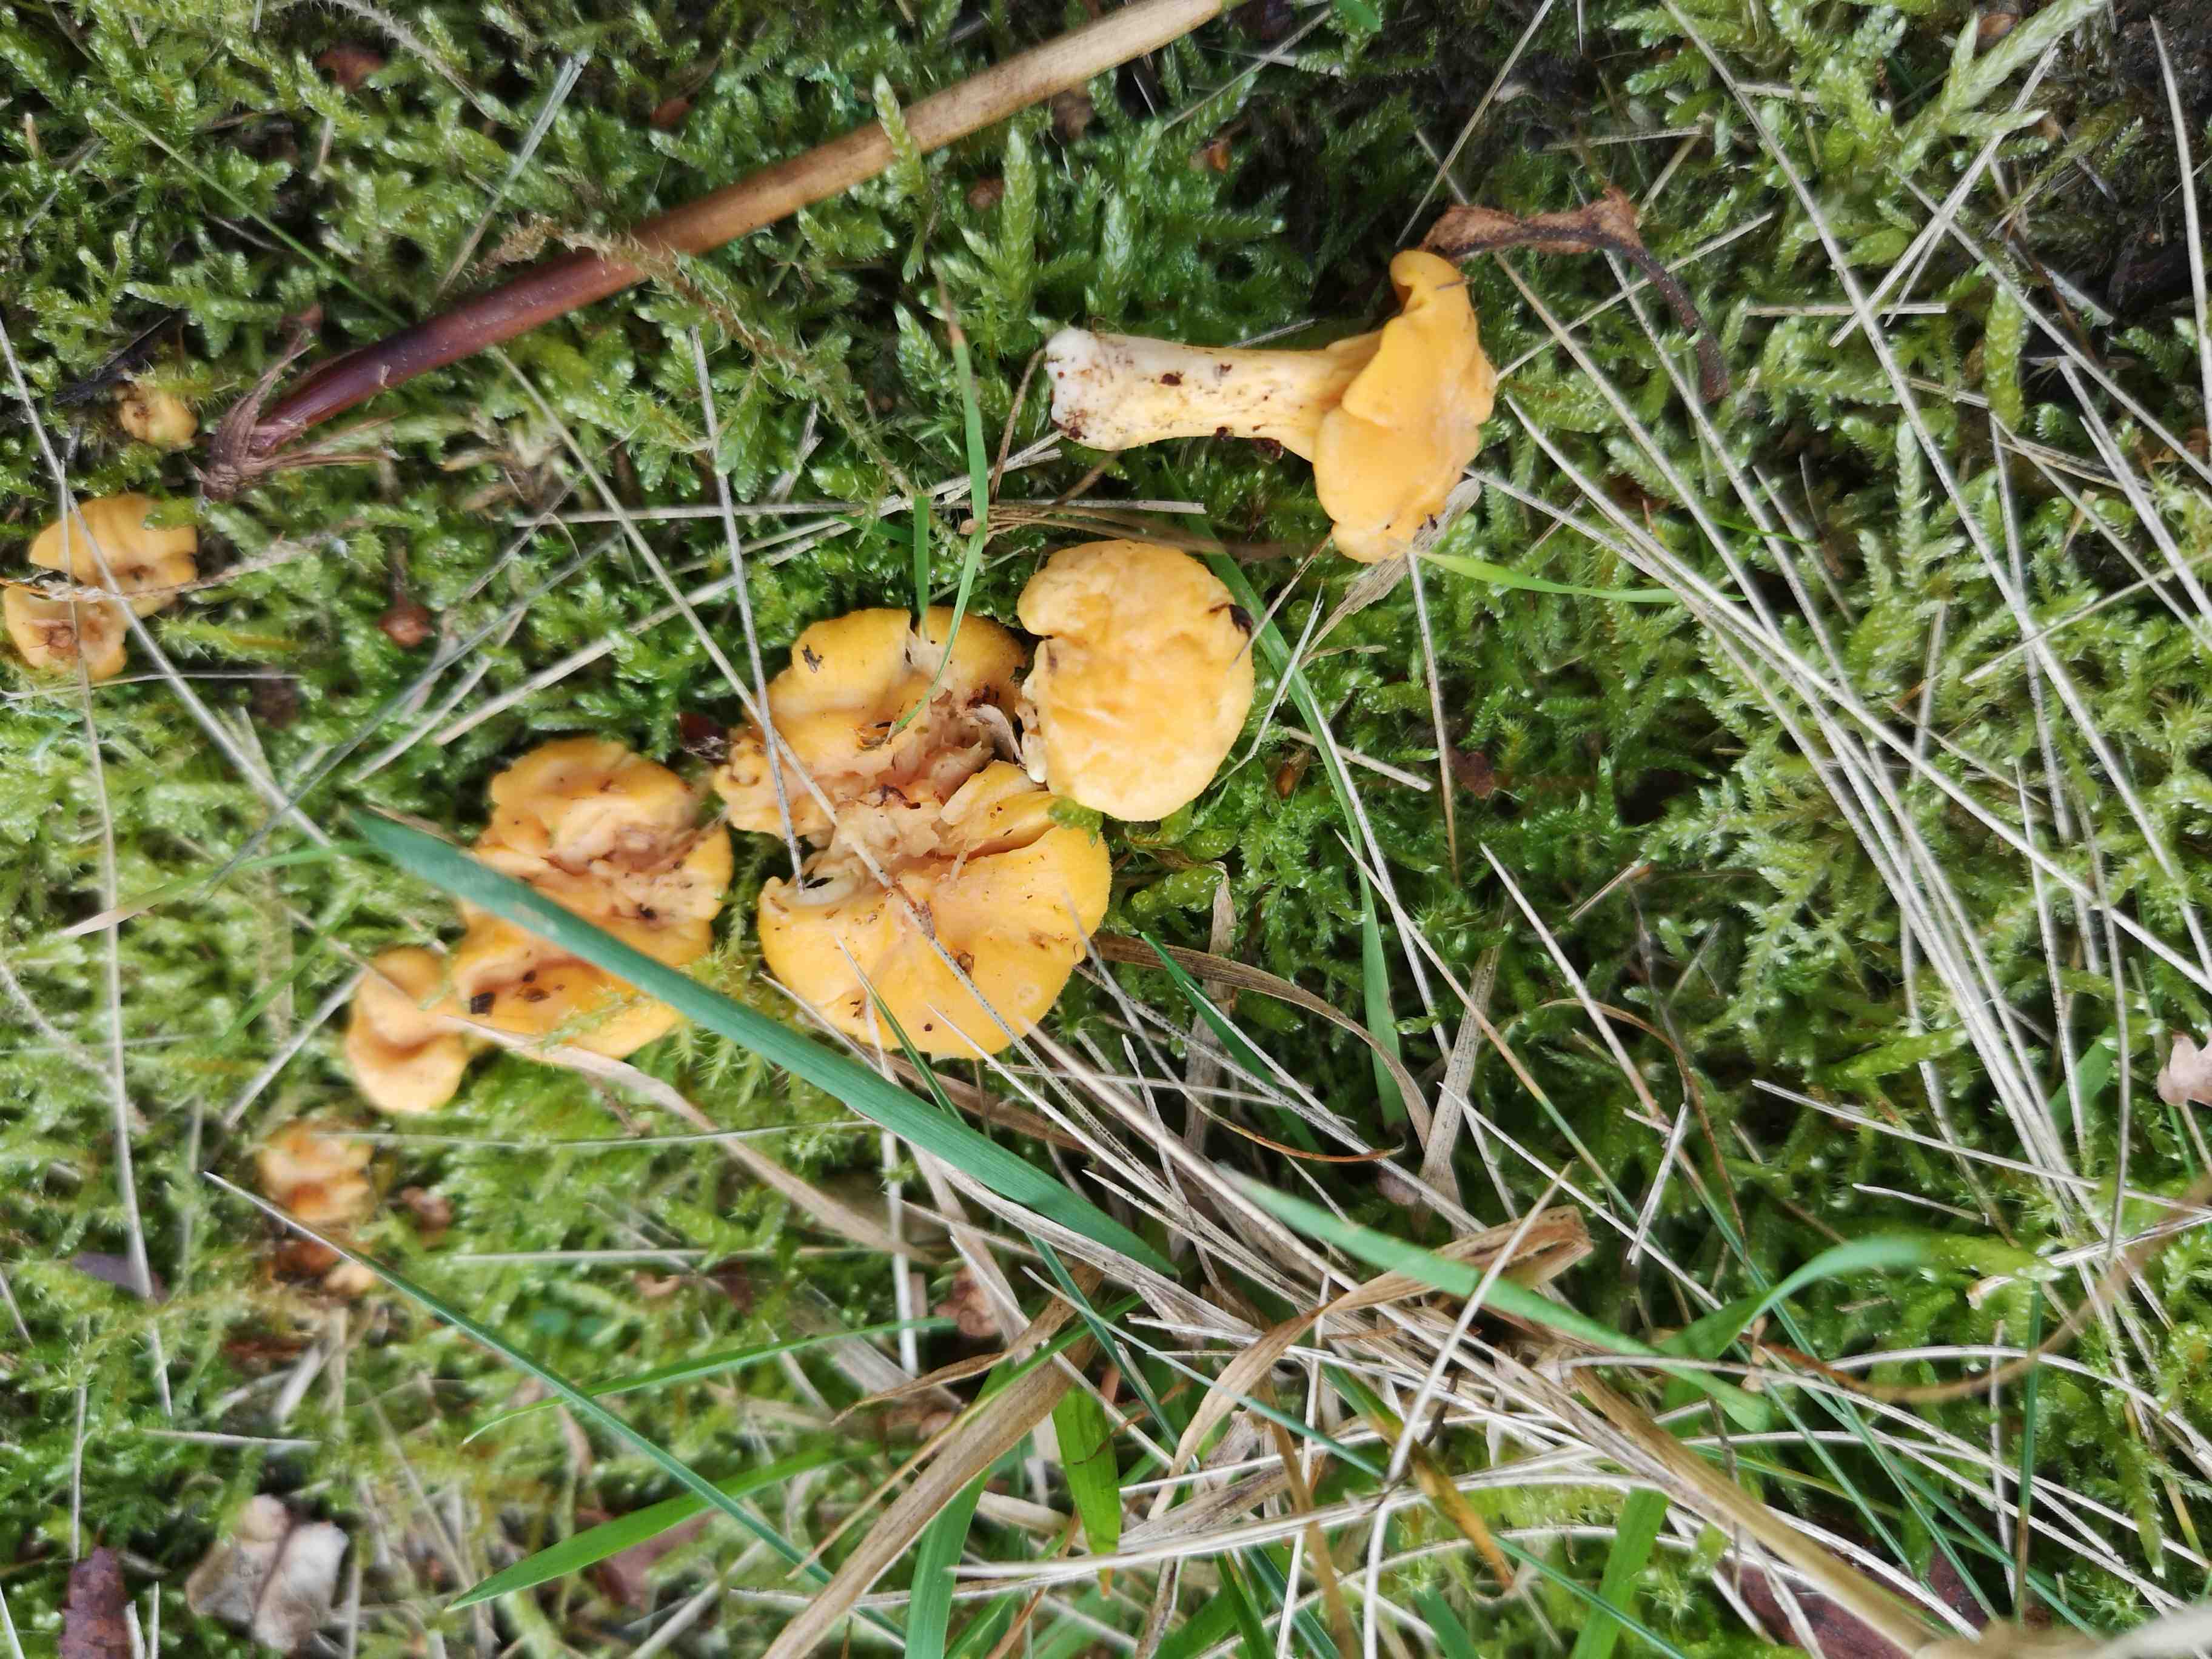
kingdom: Fungi
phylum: Basidiomycota
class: Agaricomycetes
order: Cantharellales
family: Hydnaceae
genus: Cantharellus
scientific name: Cantharellus cibarius
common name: almindelig kantarel
